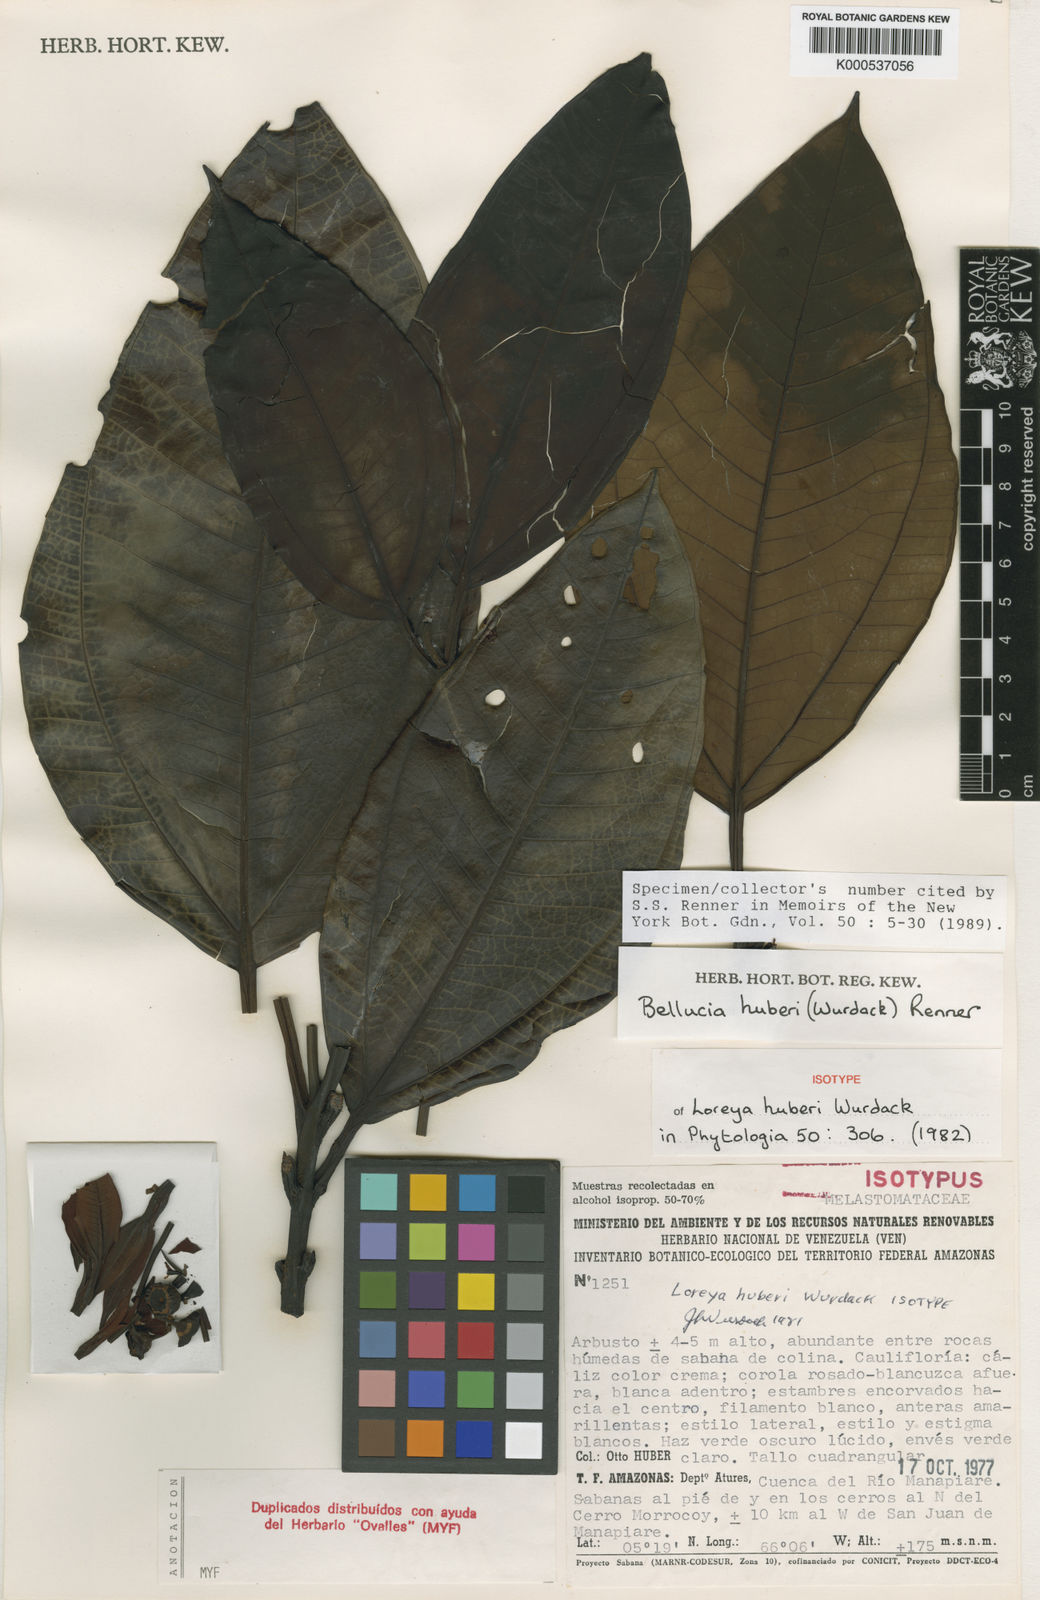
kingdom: Plantae
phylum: Tracheophyta
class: Magnoliopsida
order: Myrtales
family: Melastomataceae
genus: Bellucia
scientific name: Bellucia huberi
